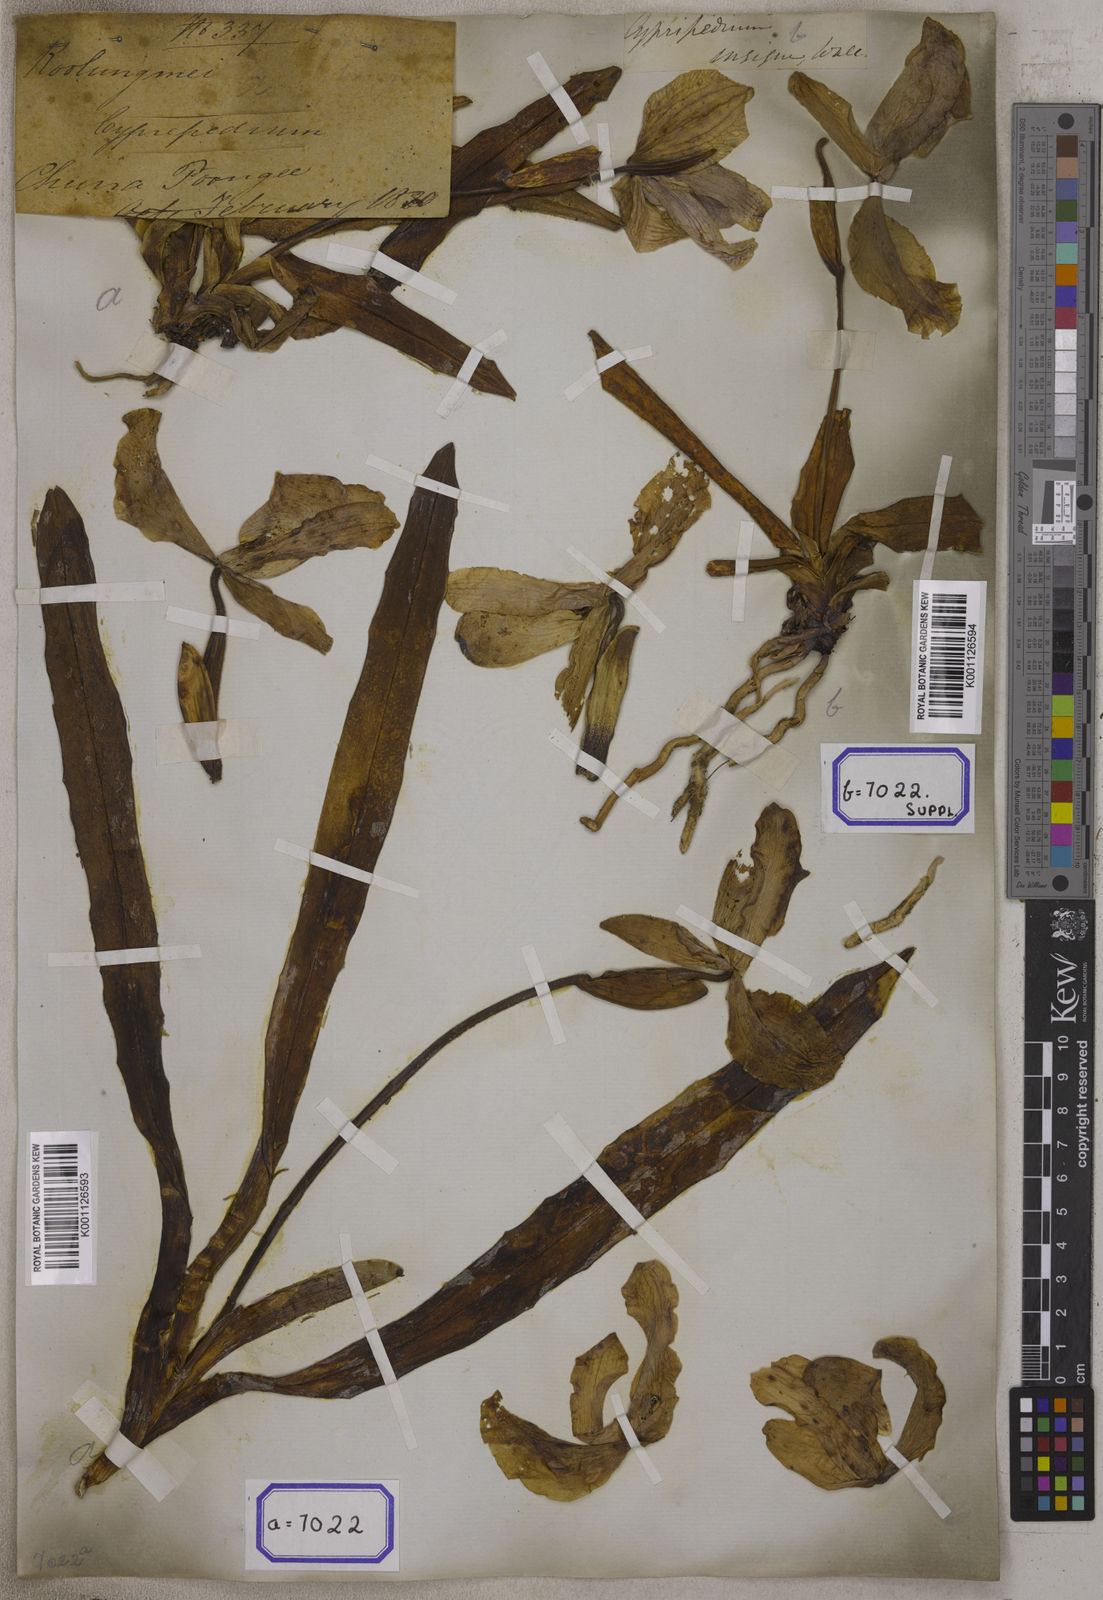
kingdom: Plantae
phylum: Tracheophyta
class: Liliopsida
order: Asparagales
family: Orchidaceae
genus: Cypripedium
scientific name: Cypripedium
